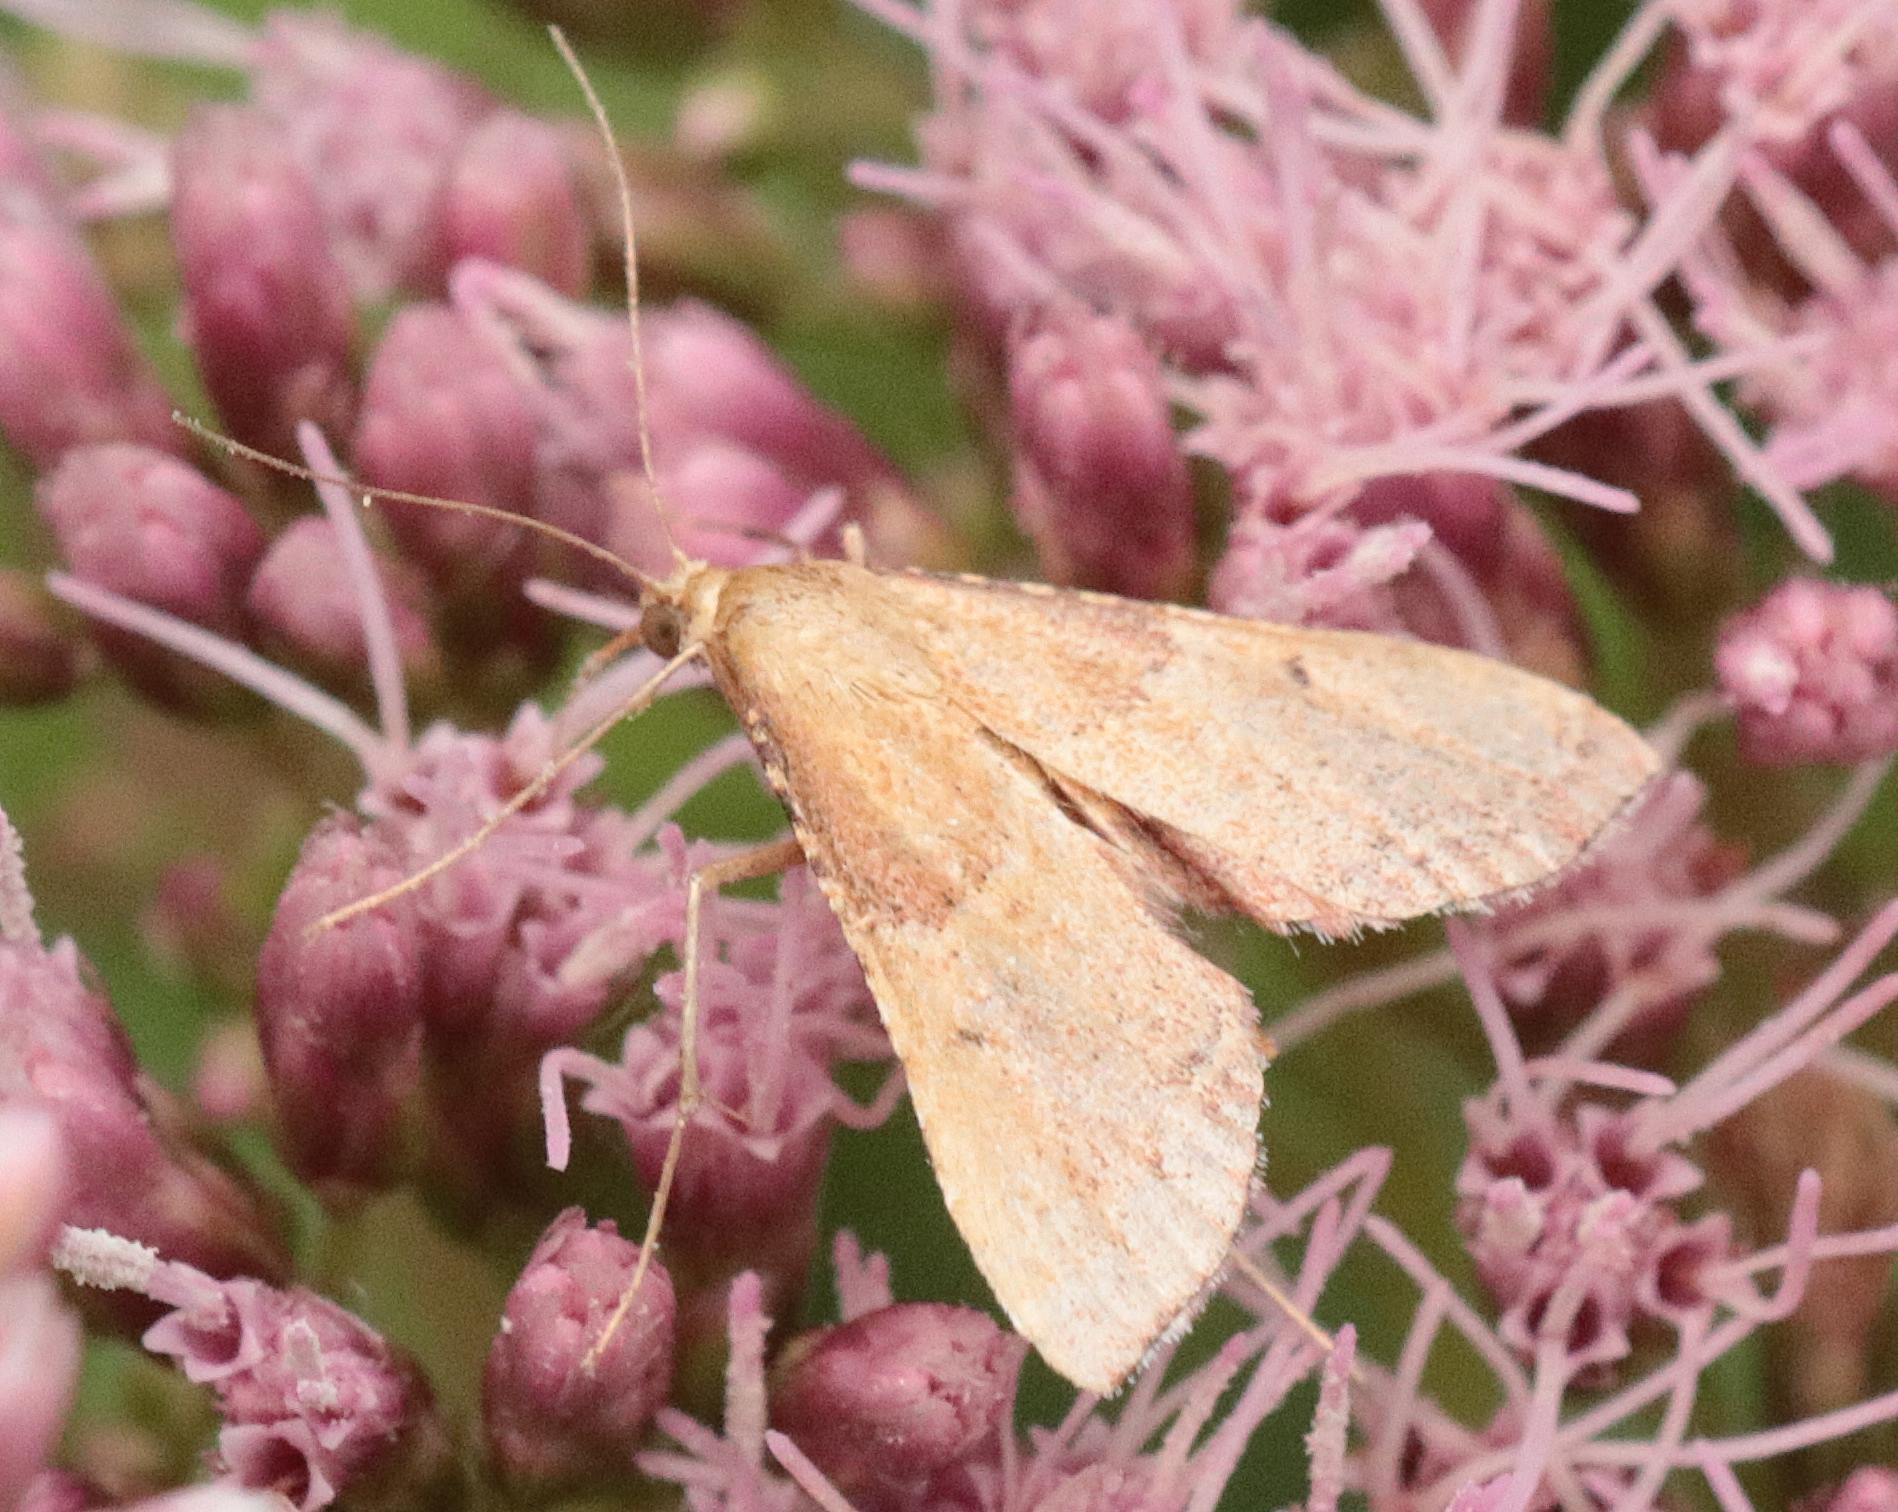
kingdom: Animalia
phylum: Arthropoda
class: Insecta
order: Lepidoptera
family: Pyralidae
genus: Endotricha
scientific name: Endotricha flammealis
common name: Løvkrathalvmøl
